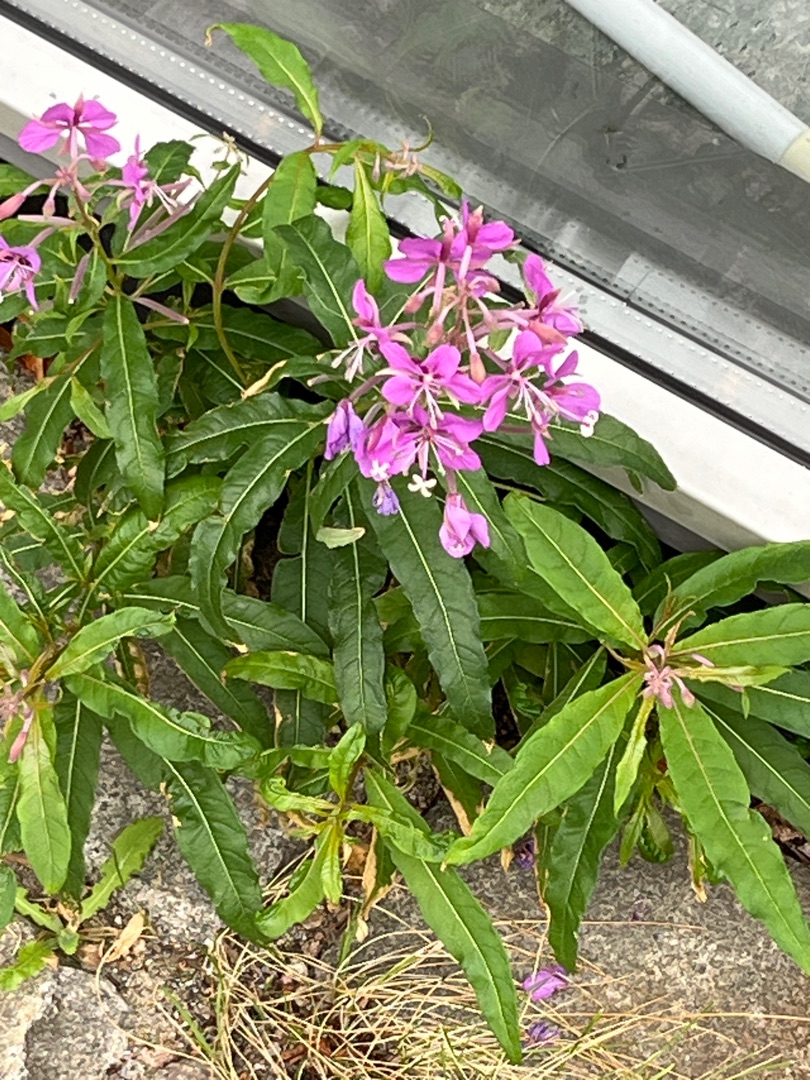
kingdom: Plantae
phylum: Tracheophyta
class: Magnoliopsida
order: Myrtales
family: Onagraceae
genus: Chamaenerion
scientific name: Chamaenerion angustifolium
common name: Gederams
